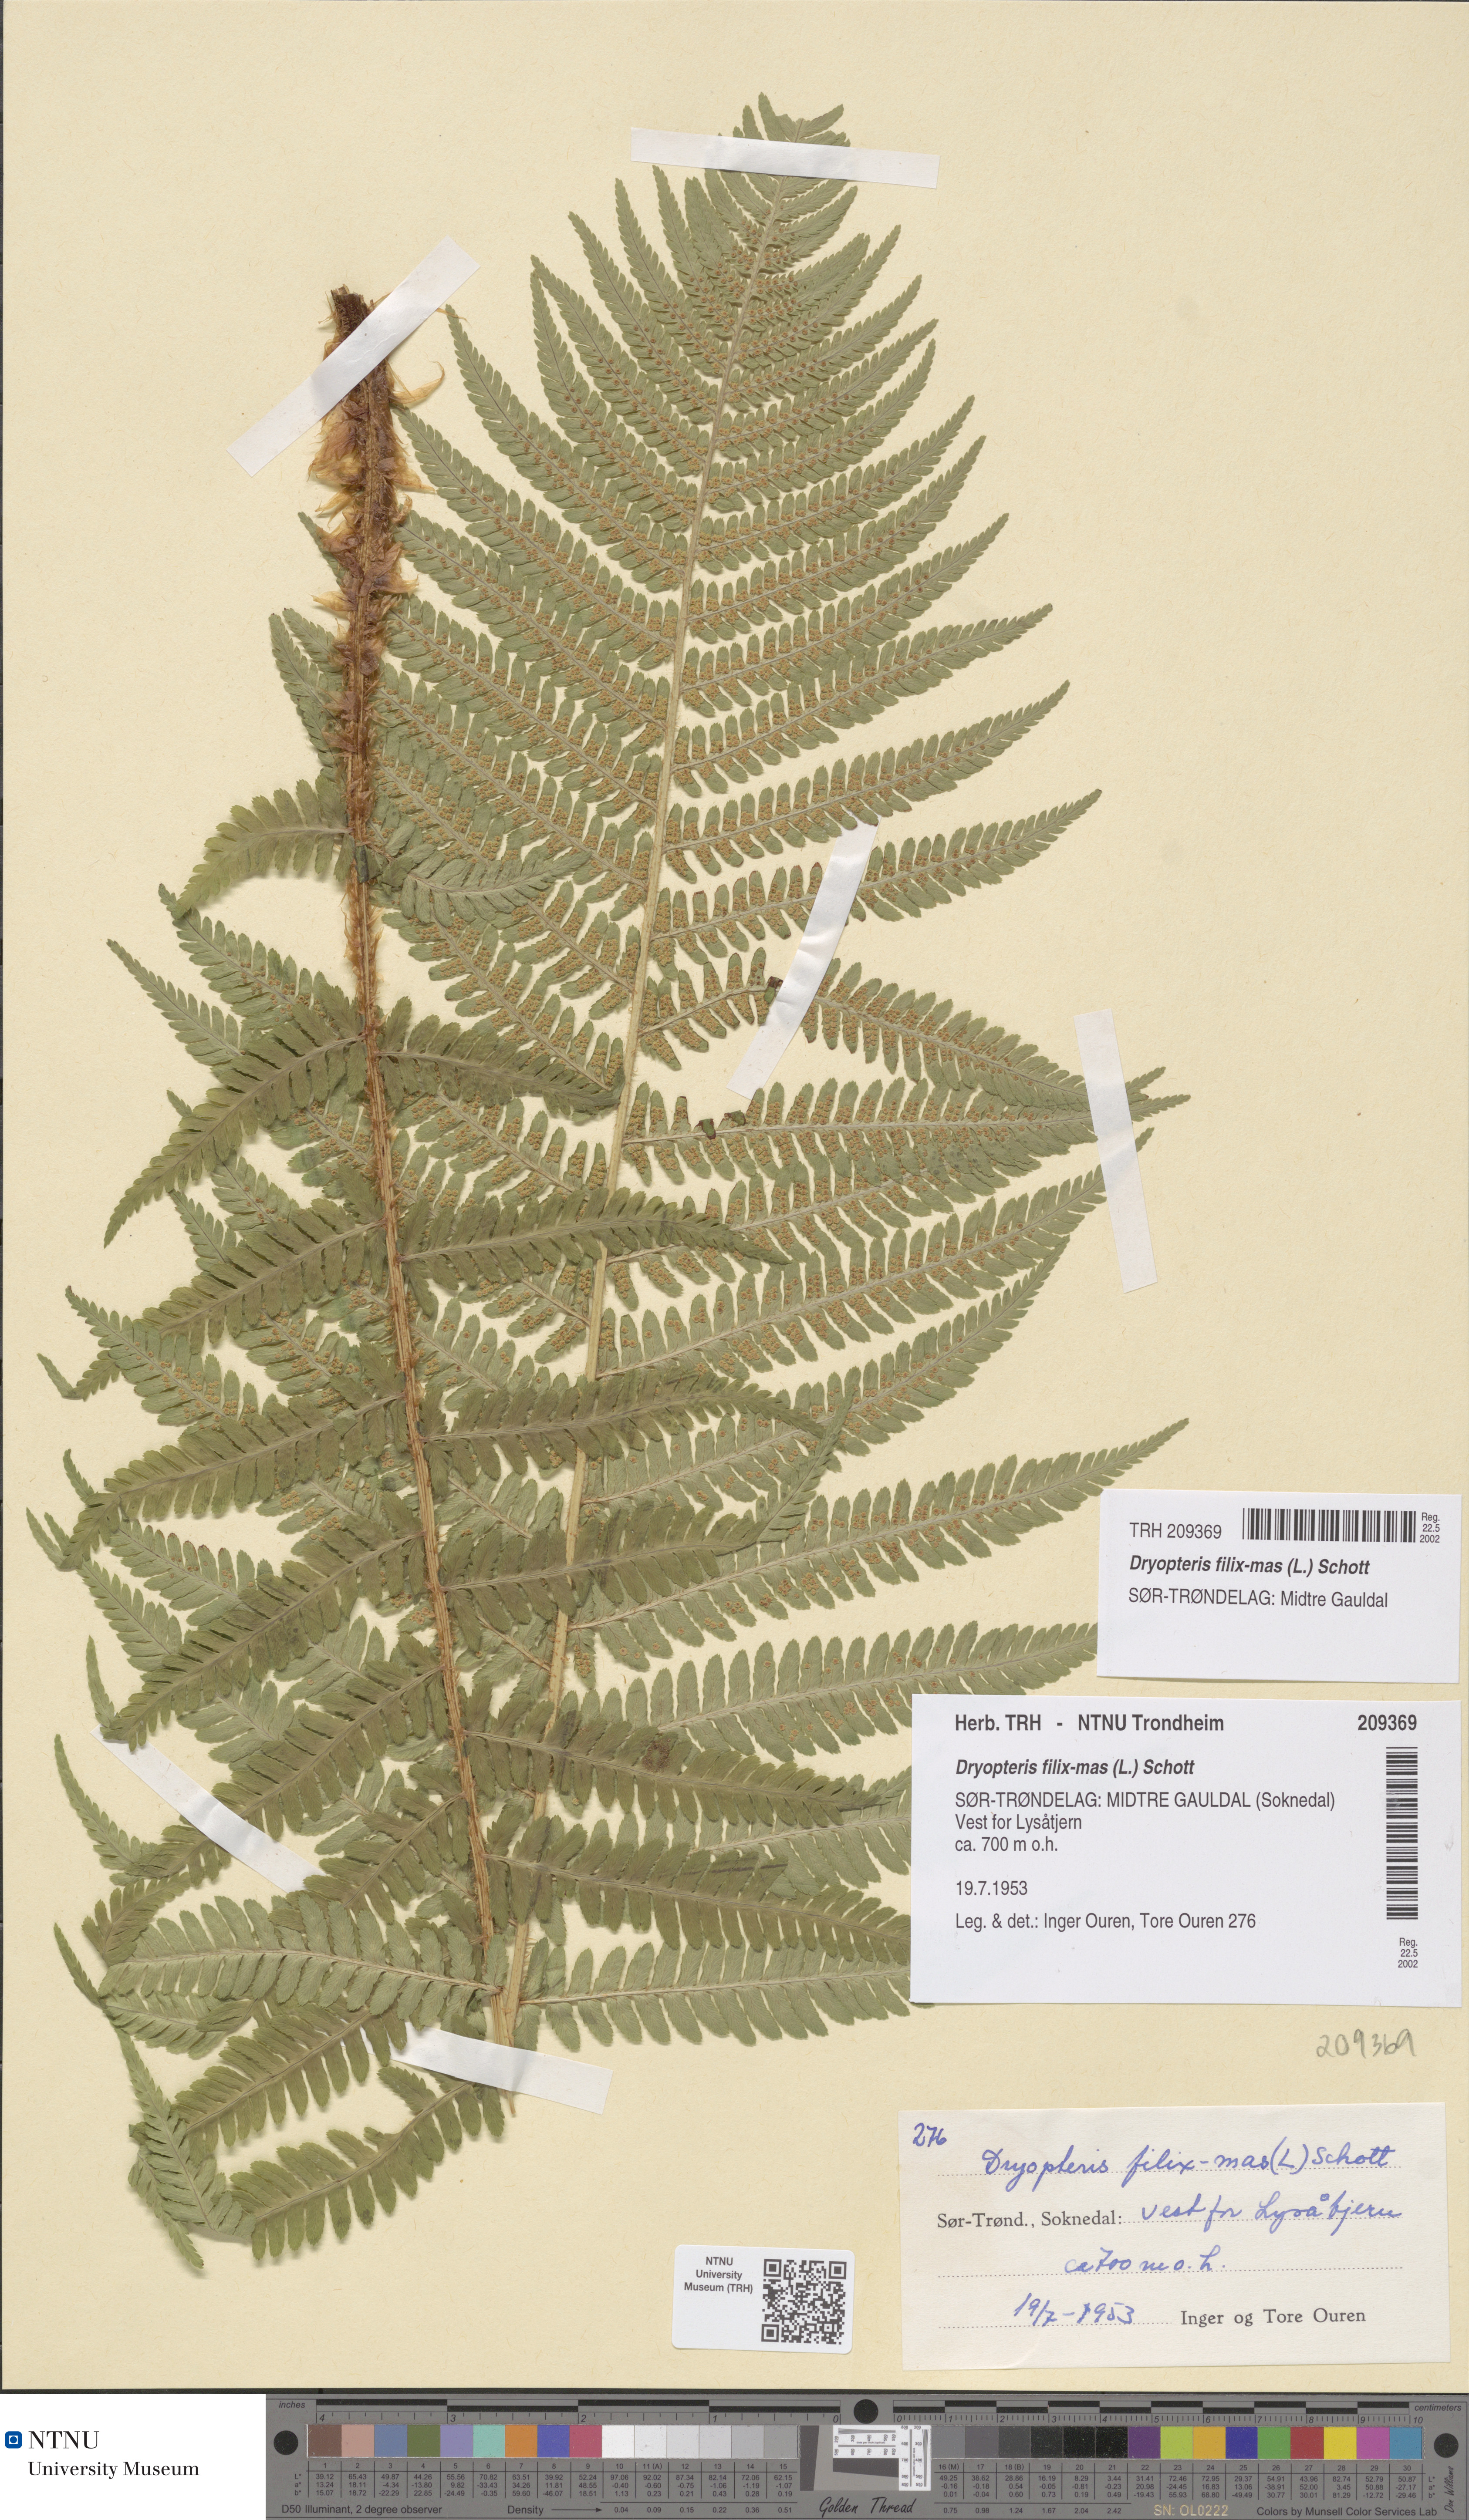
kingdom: Plantae
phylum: Tracheophyta
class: Polypodiopsida
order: Polypodiales
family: Dryopteridaceae
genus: Dryopteris
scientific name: Dryopteris filix-mas
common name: Male fern
